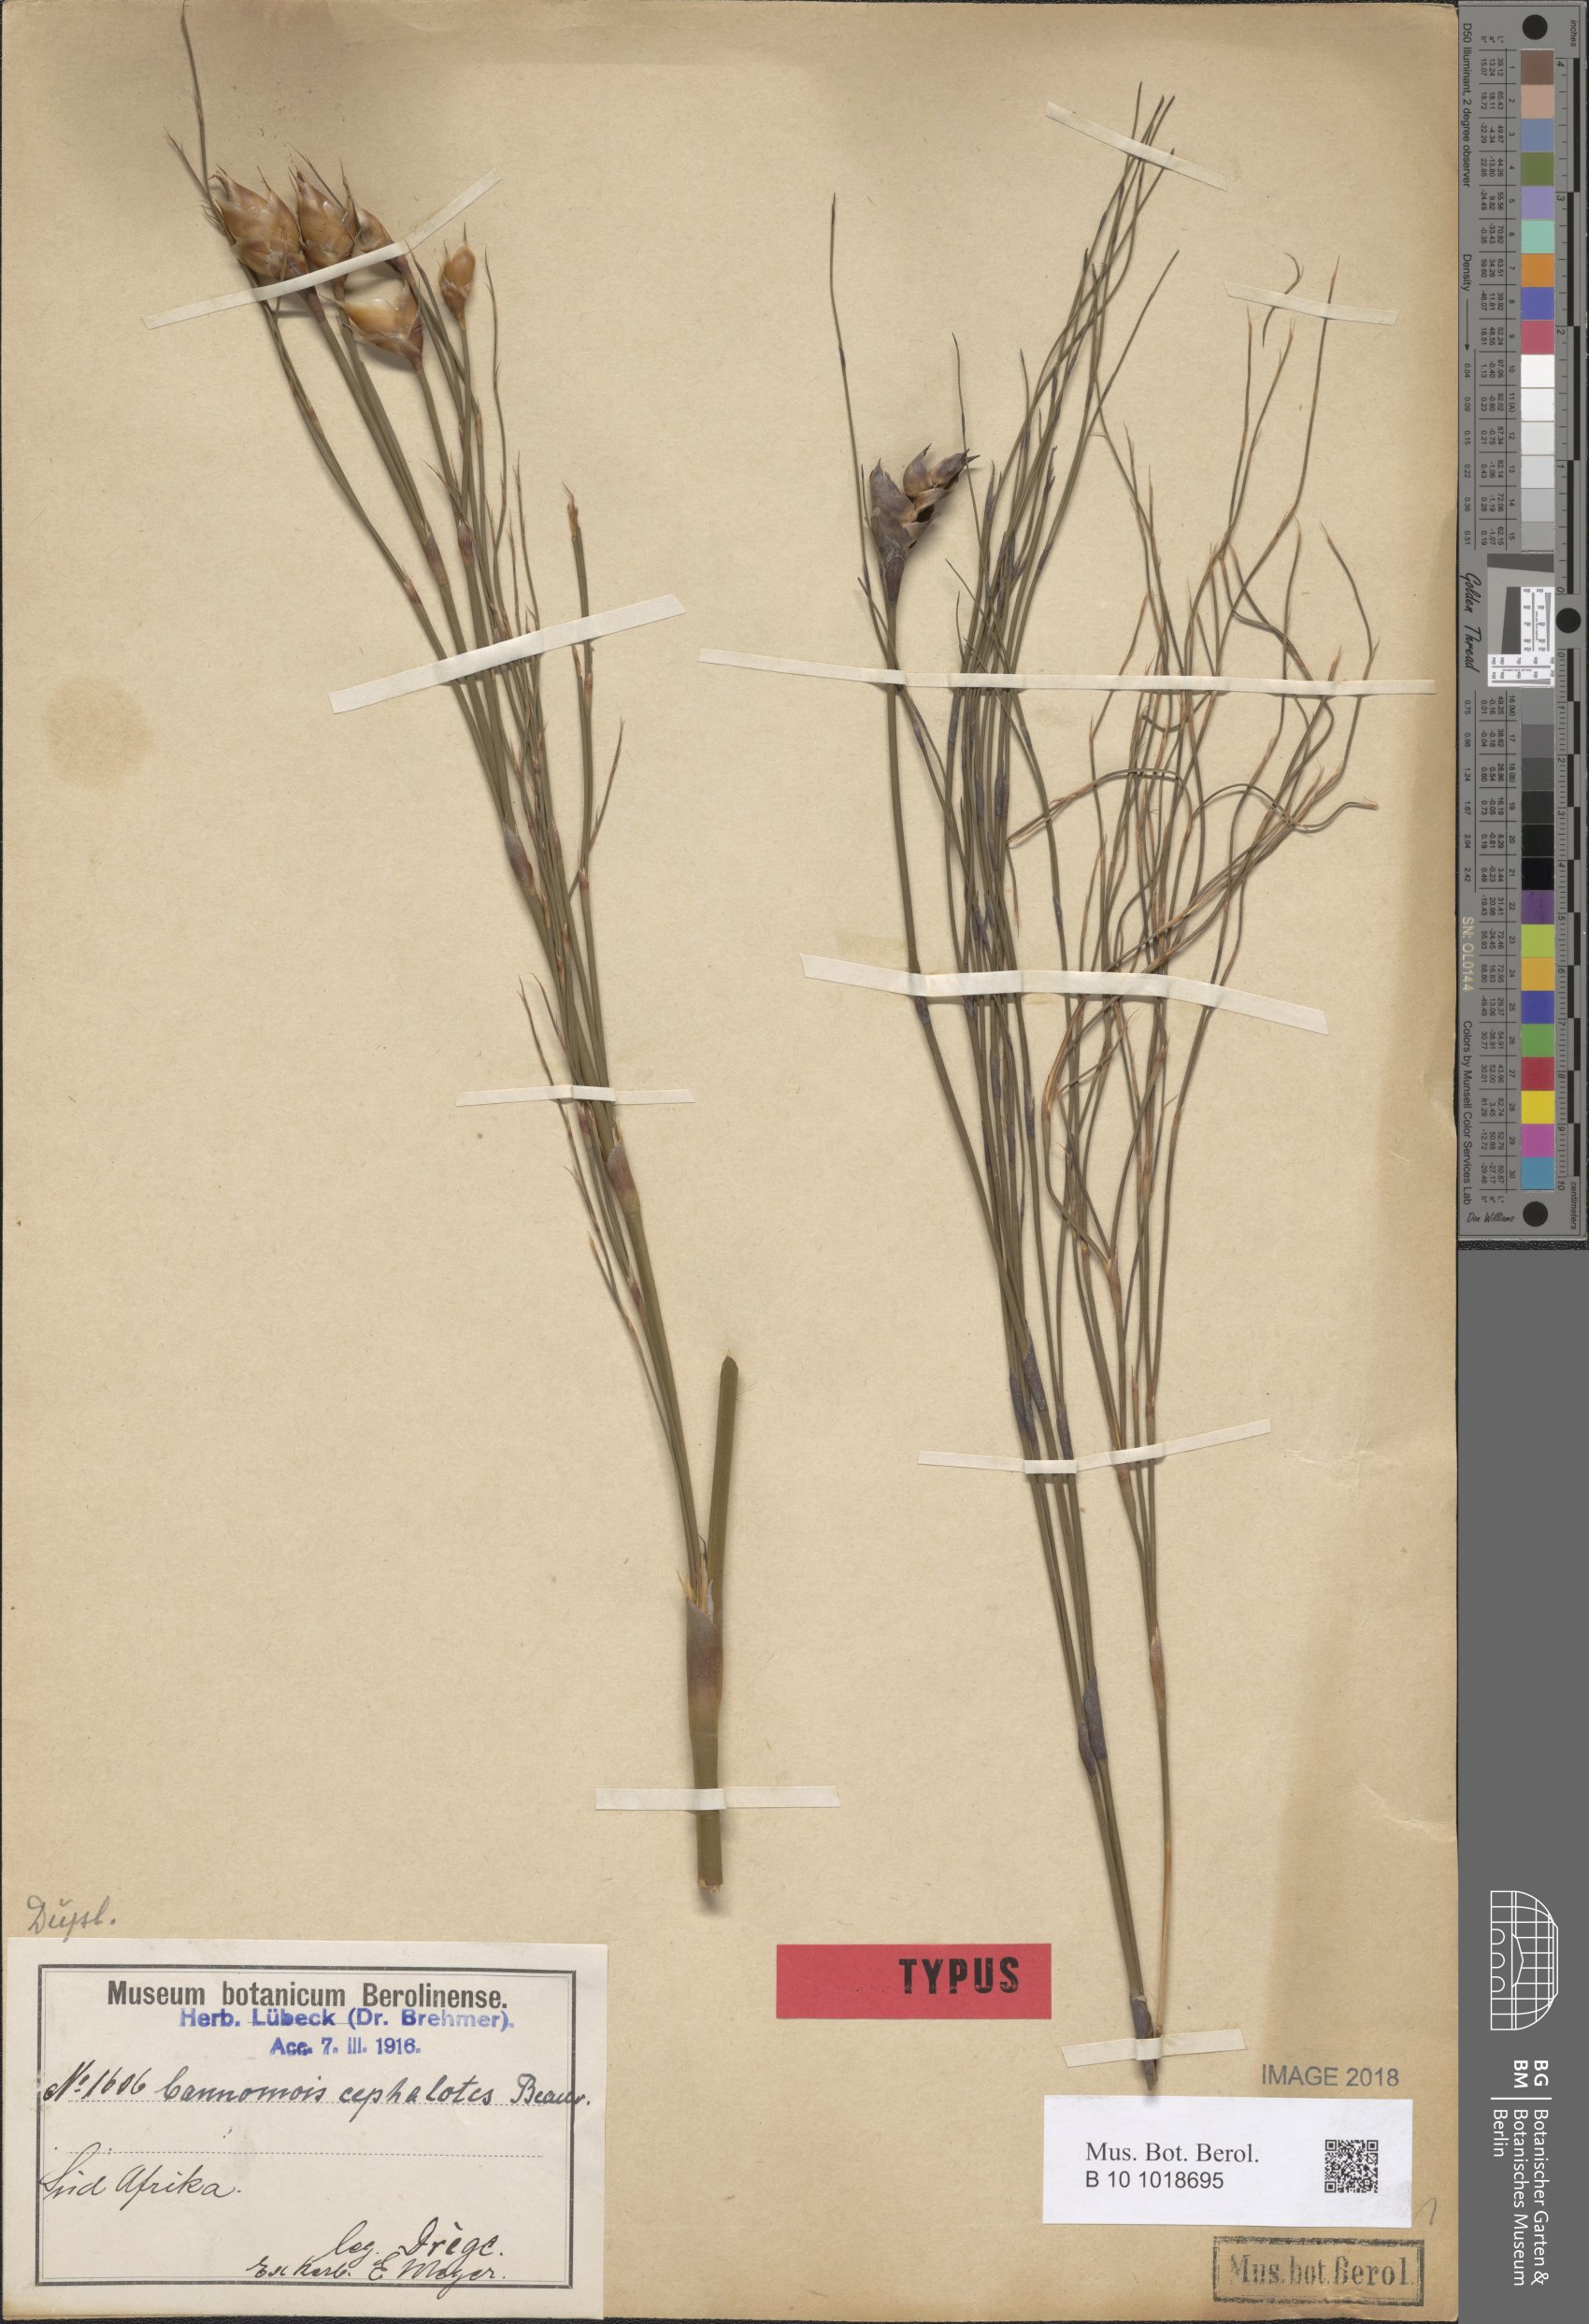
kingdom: Plantae
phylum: Tracheophyta
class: Liliopsida
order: Poales
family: Restionaceae
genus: Cannomois
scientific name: Cannomois robusta
